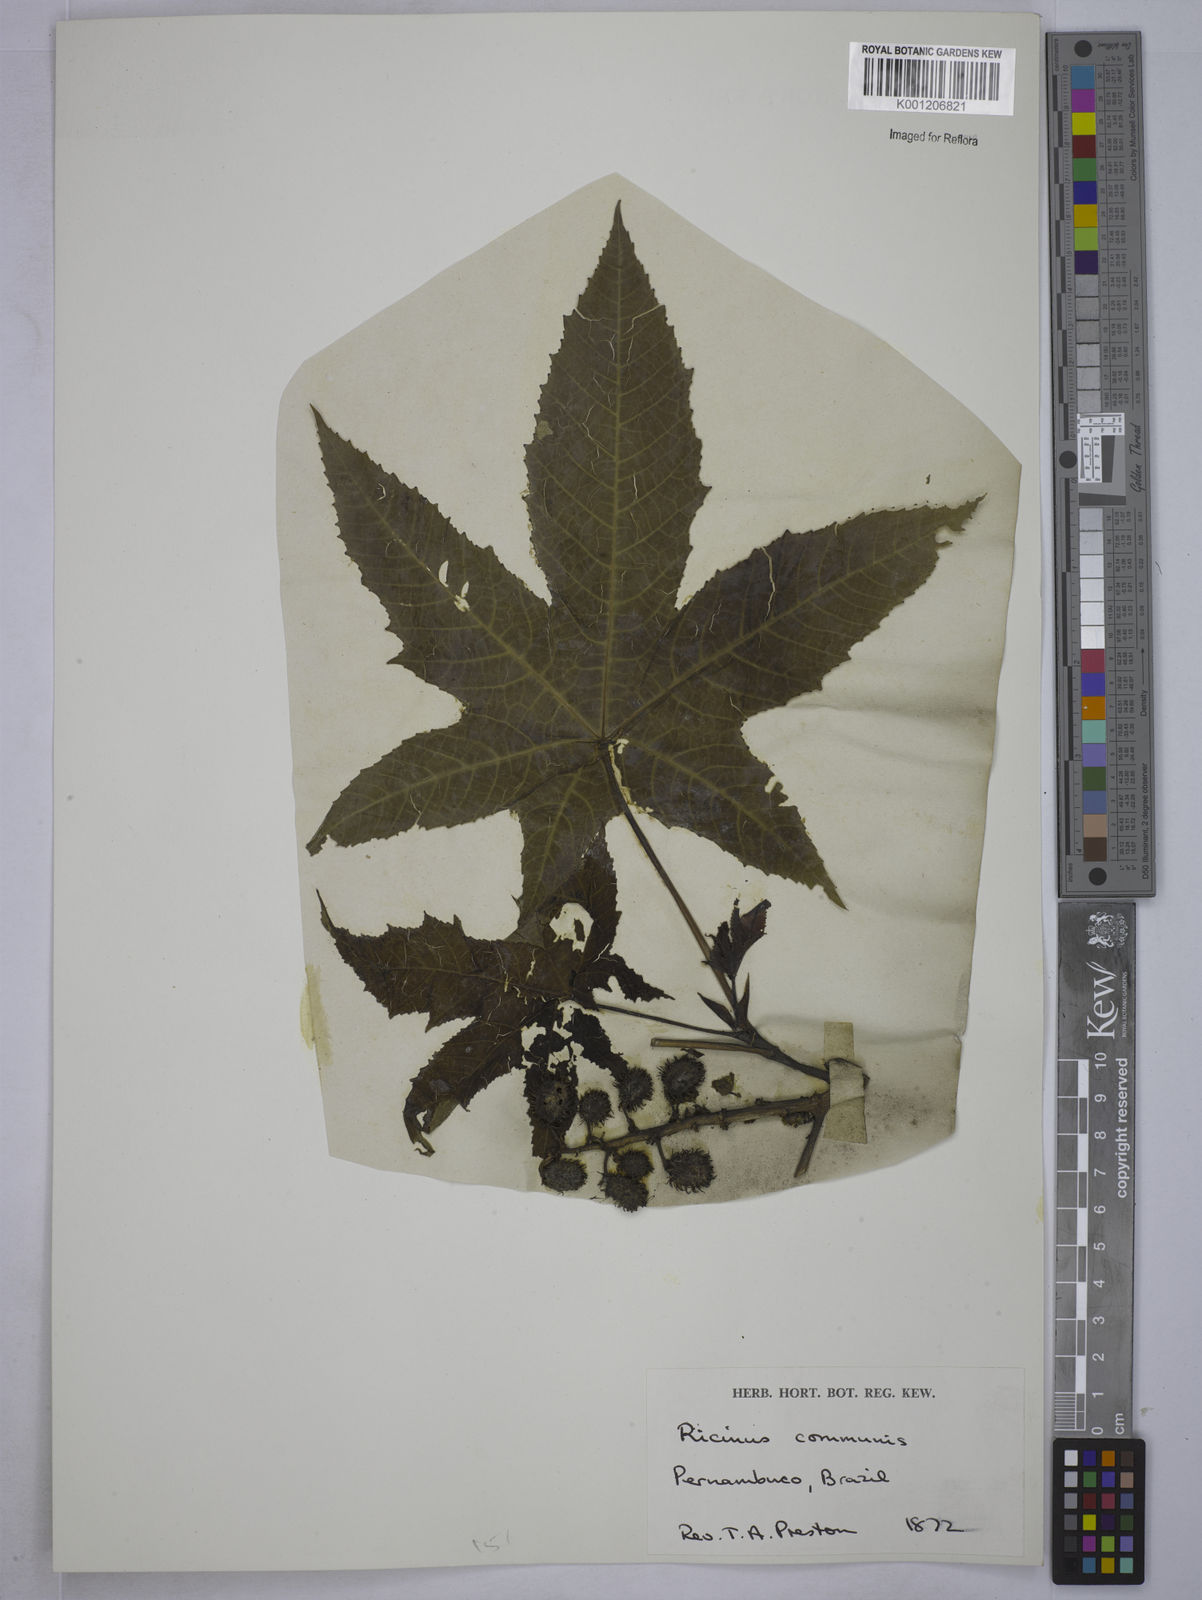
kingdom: Plantae
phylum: Tracheophyta
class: Magnoliopsida
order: Malpighiales
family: Euphorbiaceae
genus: Ricinus
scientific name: Ricinus communis
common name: Castor-oil-plant
